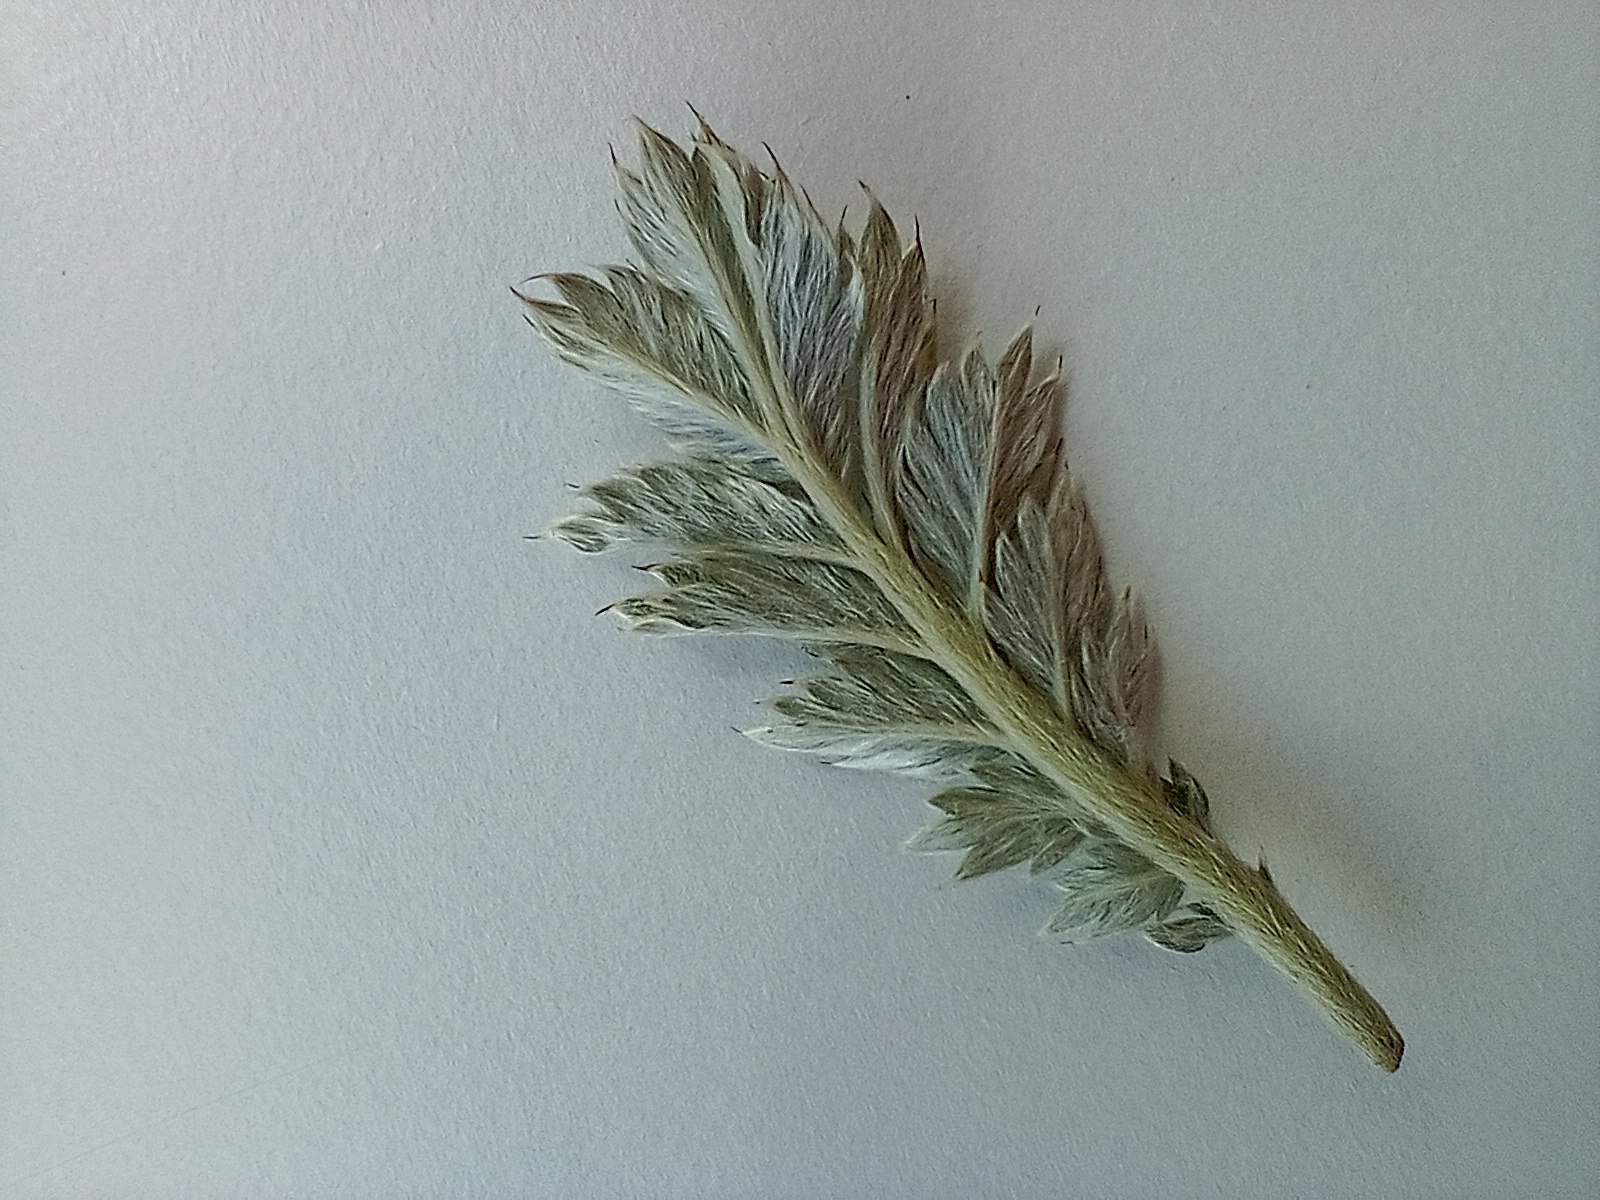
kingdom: Plantae
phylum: Tracheophyta
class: Magnoliopsida
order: Rosales
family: Rosaceae
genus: Argentina
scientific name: Argentina anserina
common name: Gåsepotentil
